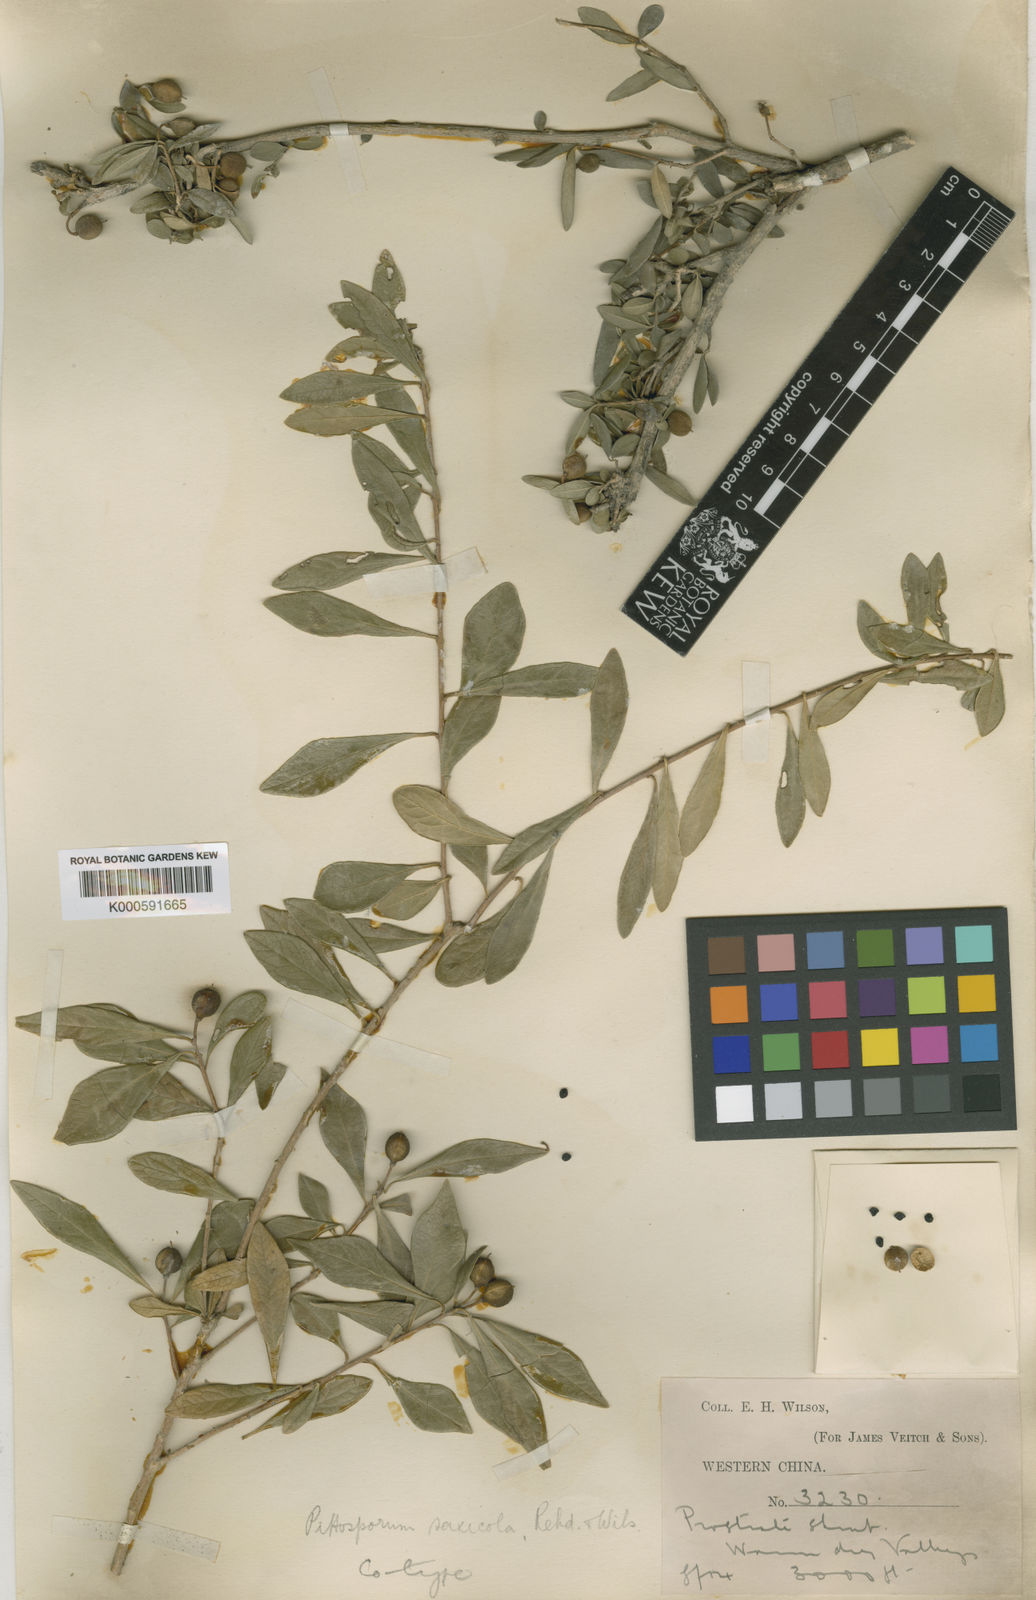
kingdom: Plantae
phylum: Tracheophyta
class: Magnoliopsida
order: Apiales
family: Pittosporaceae
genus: Pittosporum
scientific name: Pittosporum saxicola
